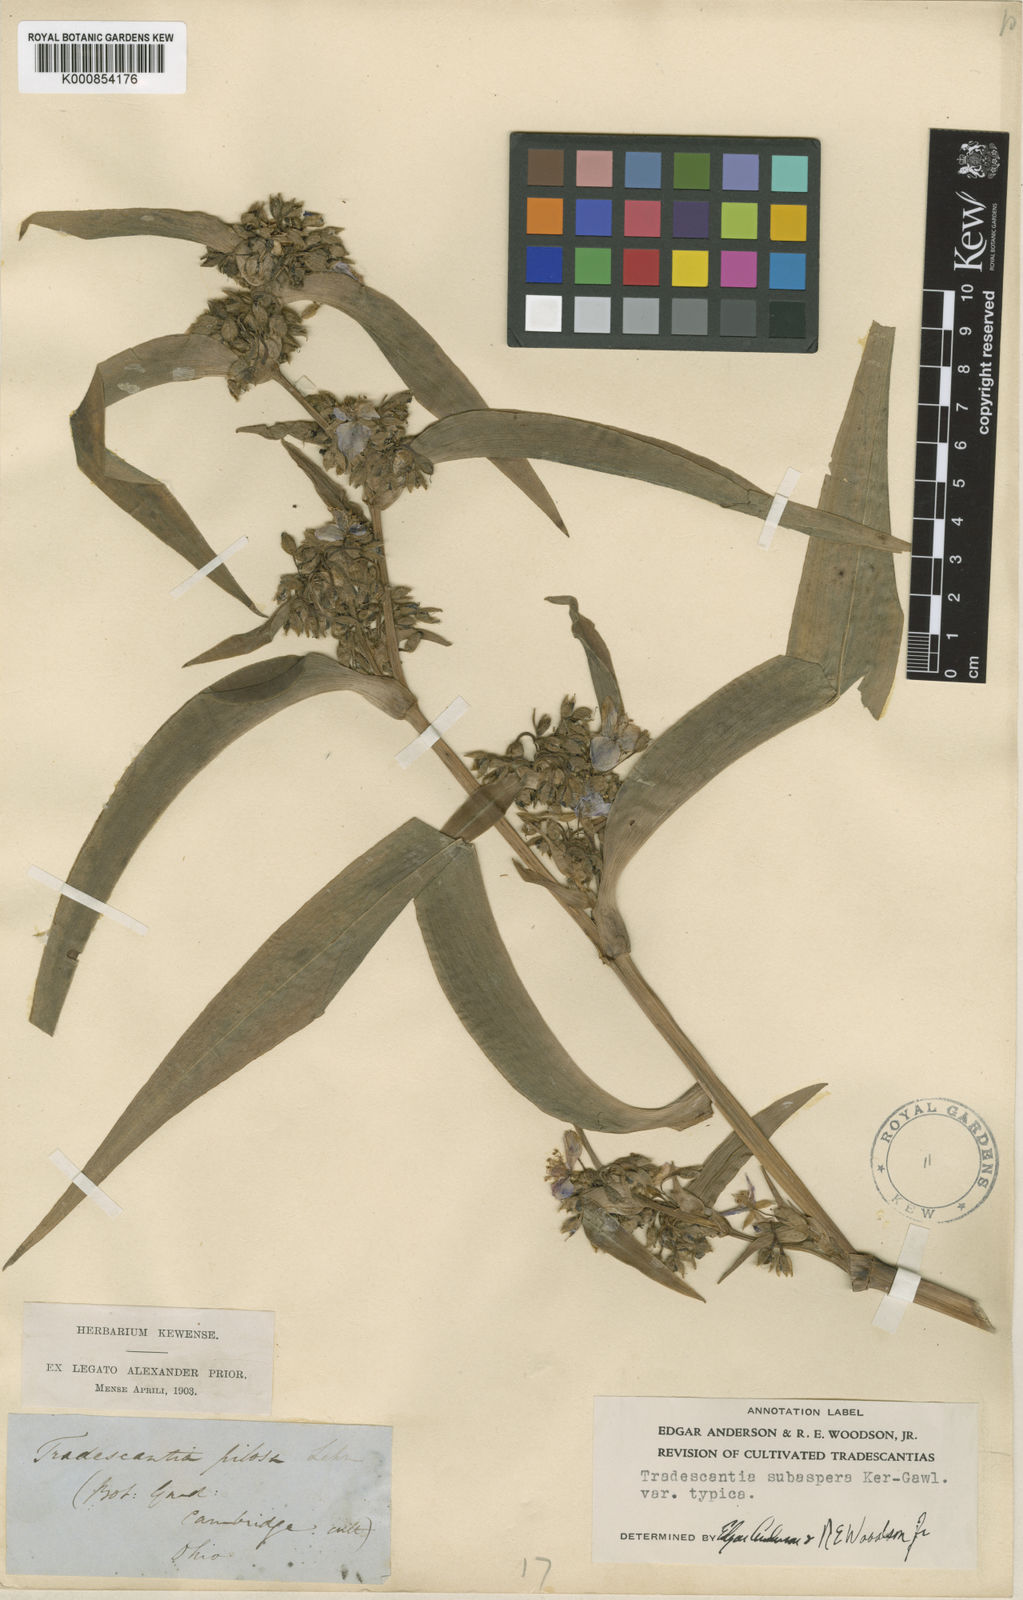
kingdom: Plantae
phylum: Tracheophyta
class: Liliopsida
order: Commelinales
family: Commelinaceae
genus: Tradescantia
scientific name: Tradescantia subaspera
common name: Wide-leaf spiderwort
